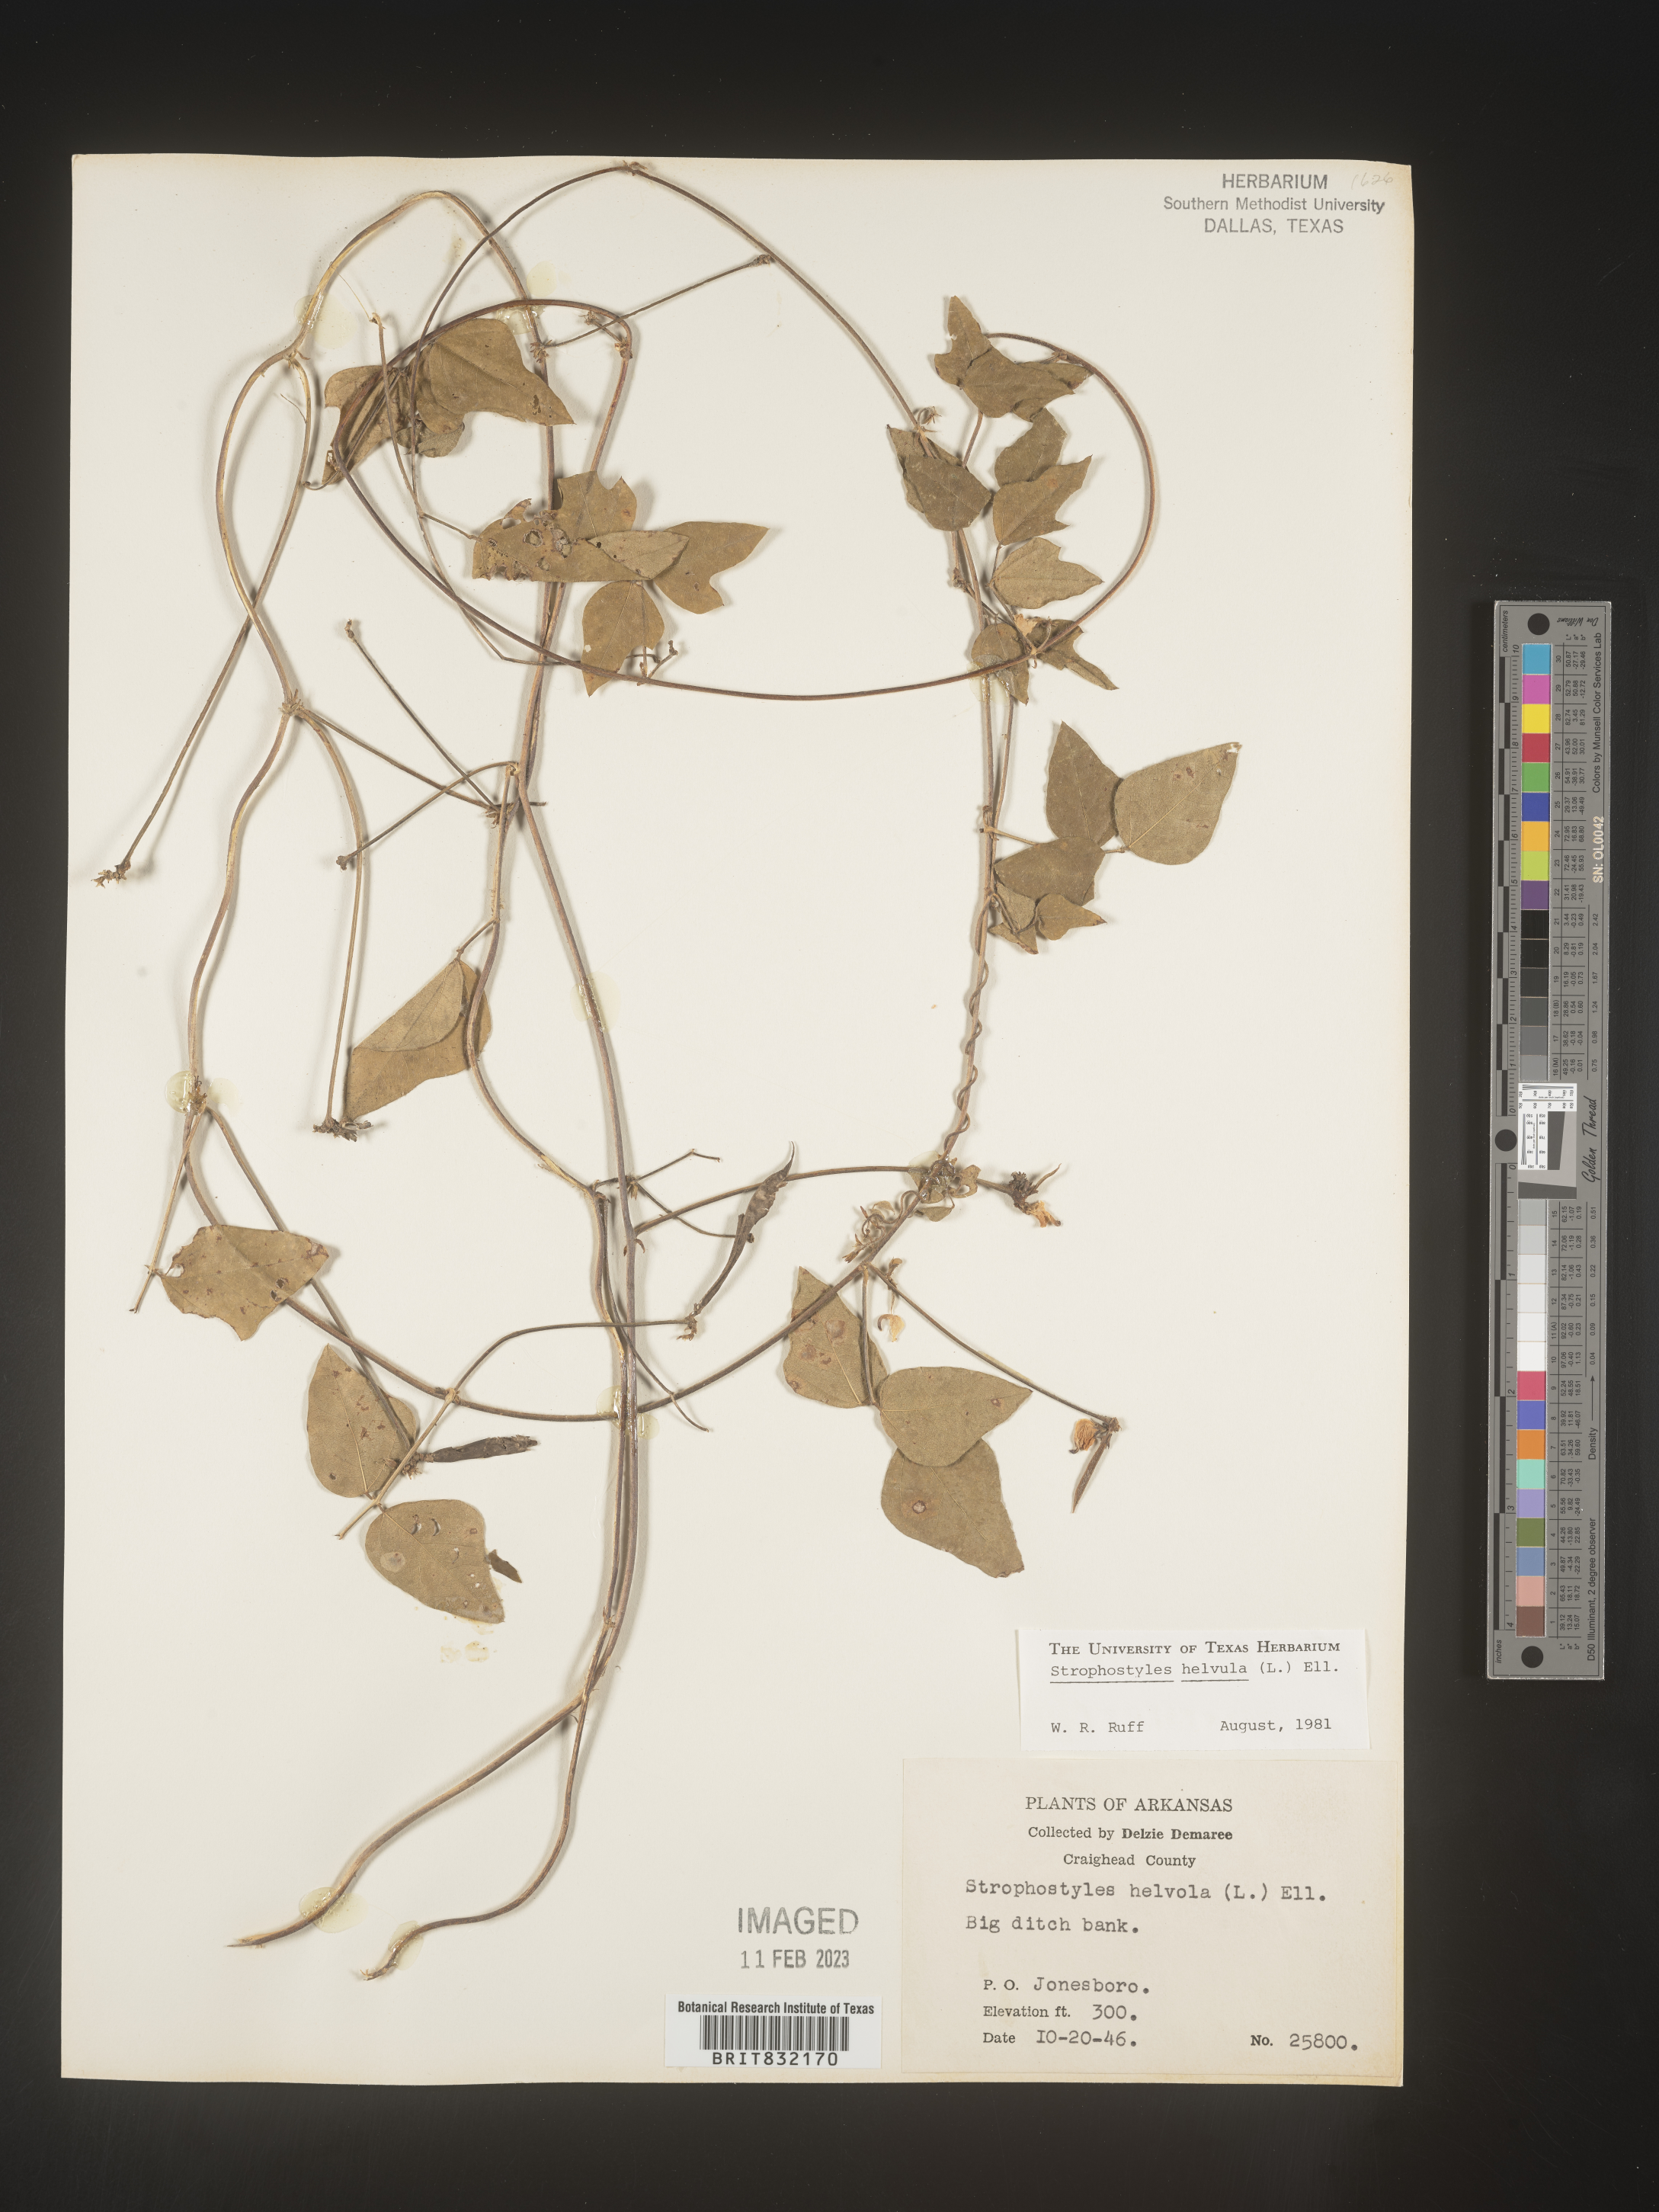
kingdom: Plantae
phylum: Tracheophyta
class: Magnoliopsida
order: Fabales
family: Fabaceae
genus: Strophostyles
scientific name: Strophostyles helvola
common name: Trailing wild bean
